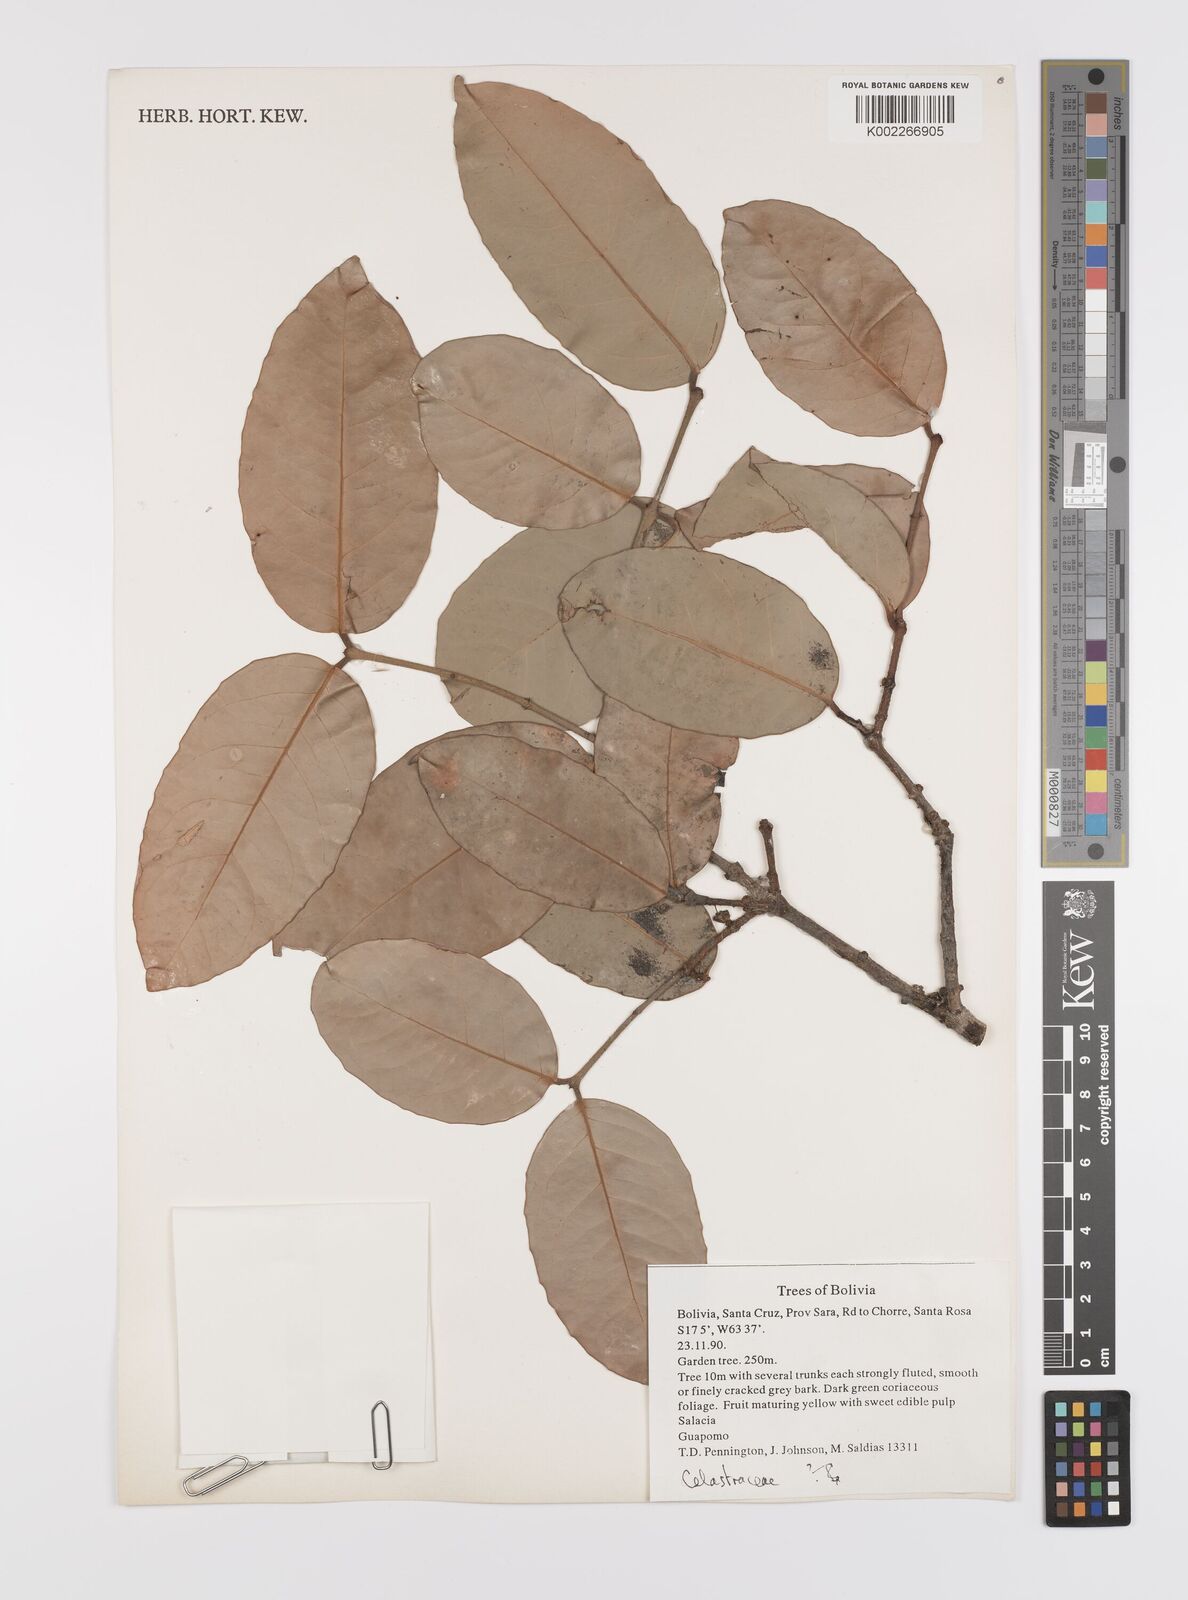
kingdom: Plantae
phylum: Tracheophyta
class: Magnoliopsida
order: Celastrales
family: Celastraceae
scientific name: Celastraceae
